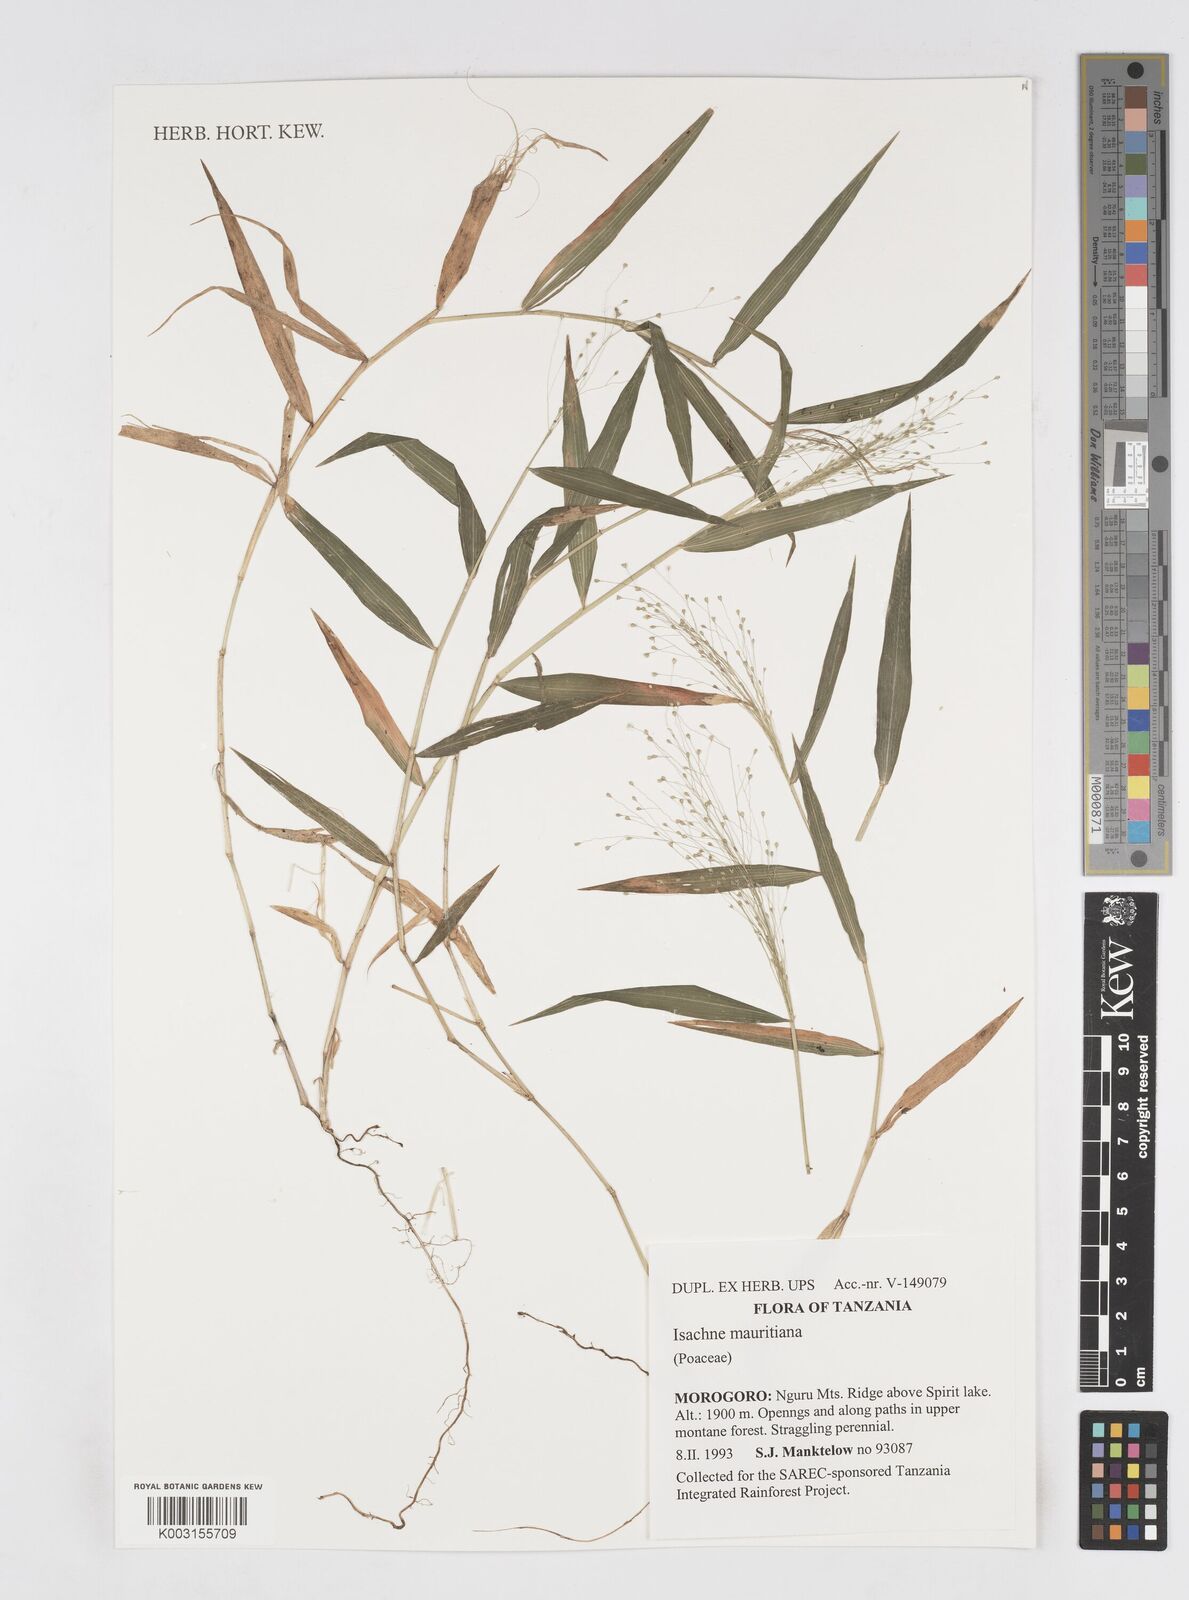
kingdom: Plantae
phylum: Tracheophyta
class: Liliopsida
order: Poales
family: Poaceae
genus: Isachne
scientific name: Isachne mauritiana
